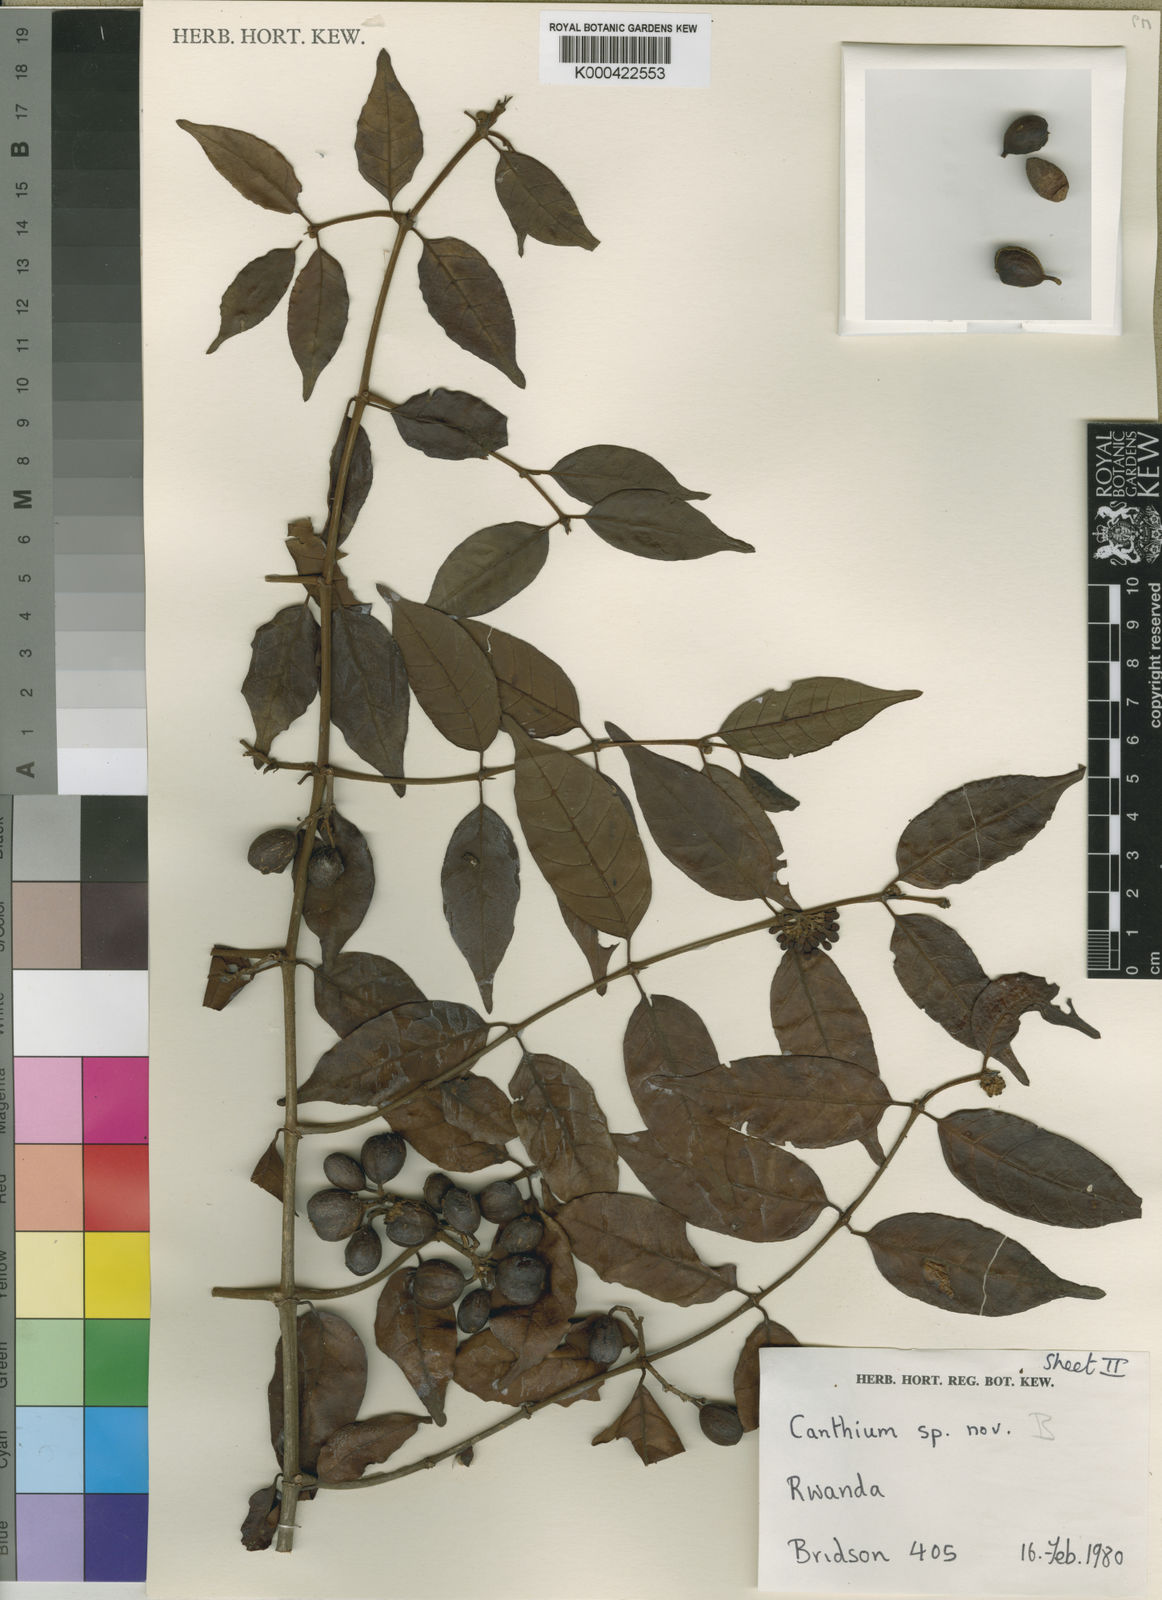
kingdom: Plantae
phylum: Tracheophyta
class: Magnoliopsida
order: Gentianales
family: Rubiaceae
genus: Keetia
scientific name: Keetia rwandensis
